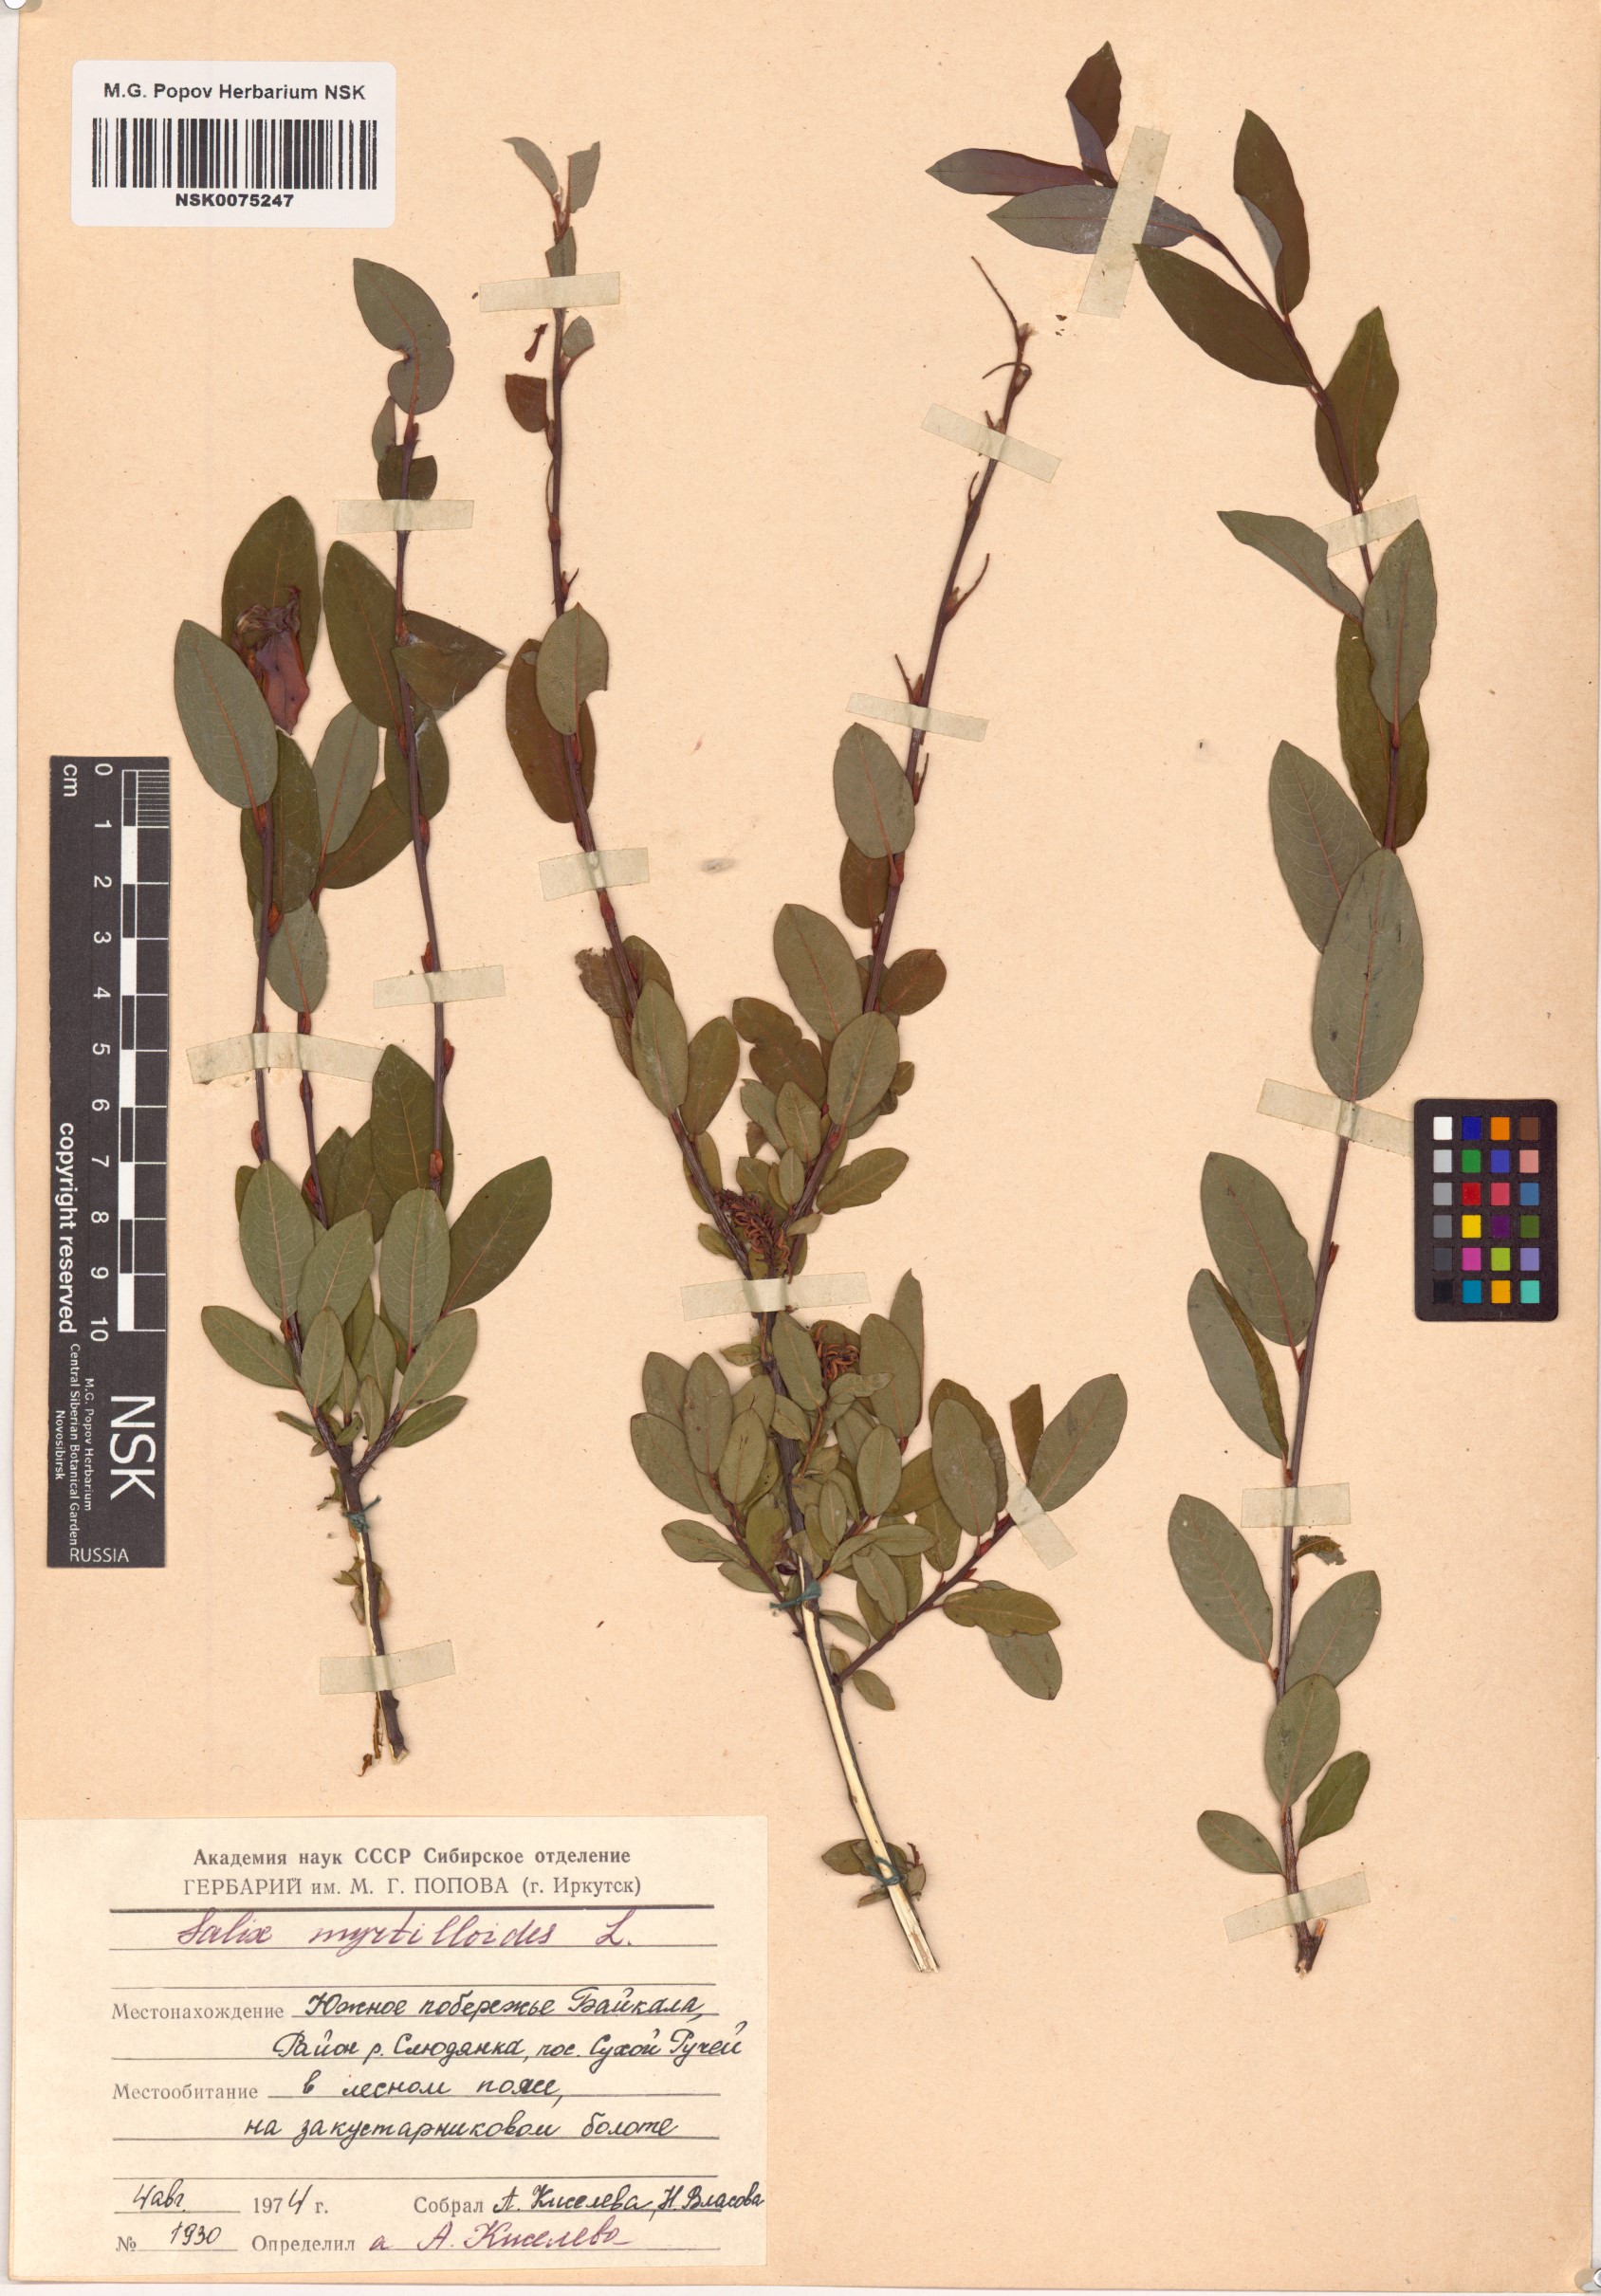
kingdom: Plantae
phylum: Tracheophyta
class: Magnoliopsida
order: Malpighiales
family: Salicaceae
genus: Salix
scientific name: Salix myrtilloides
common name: Myrtle-leaved willow
